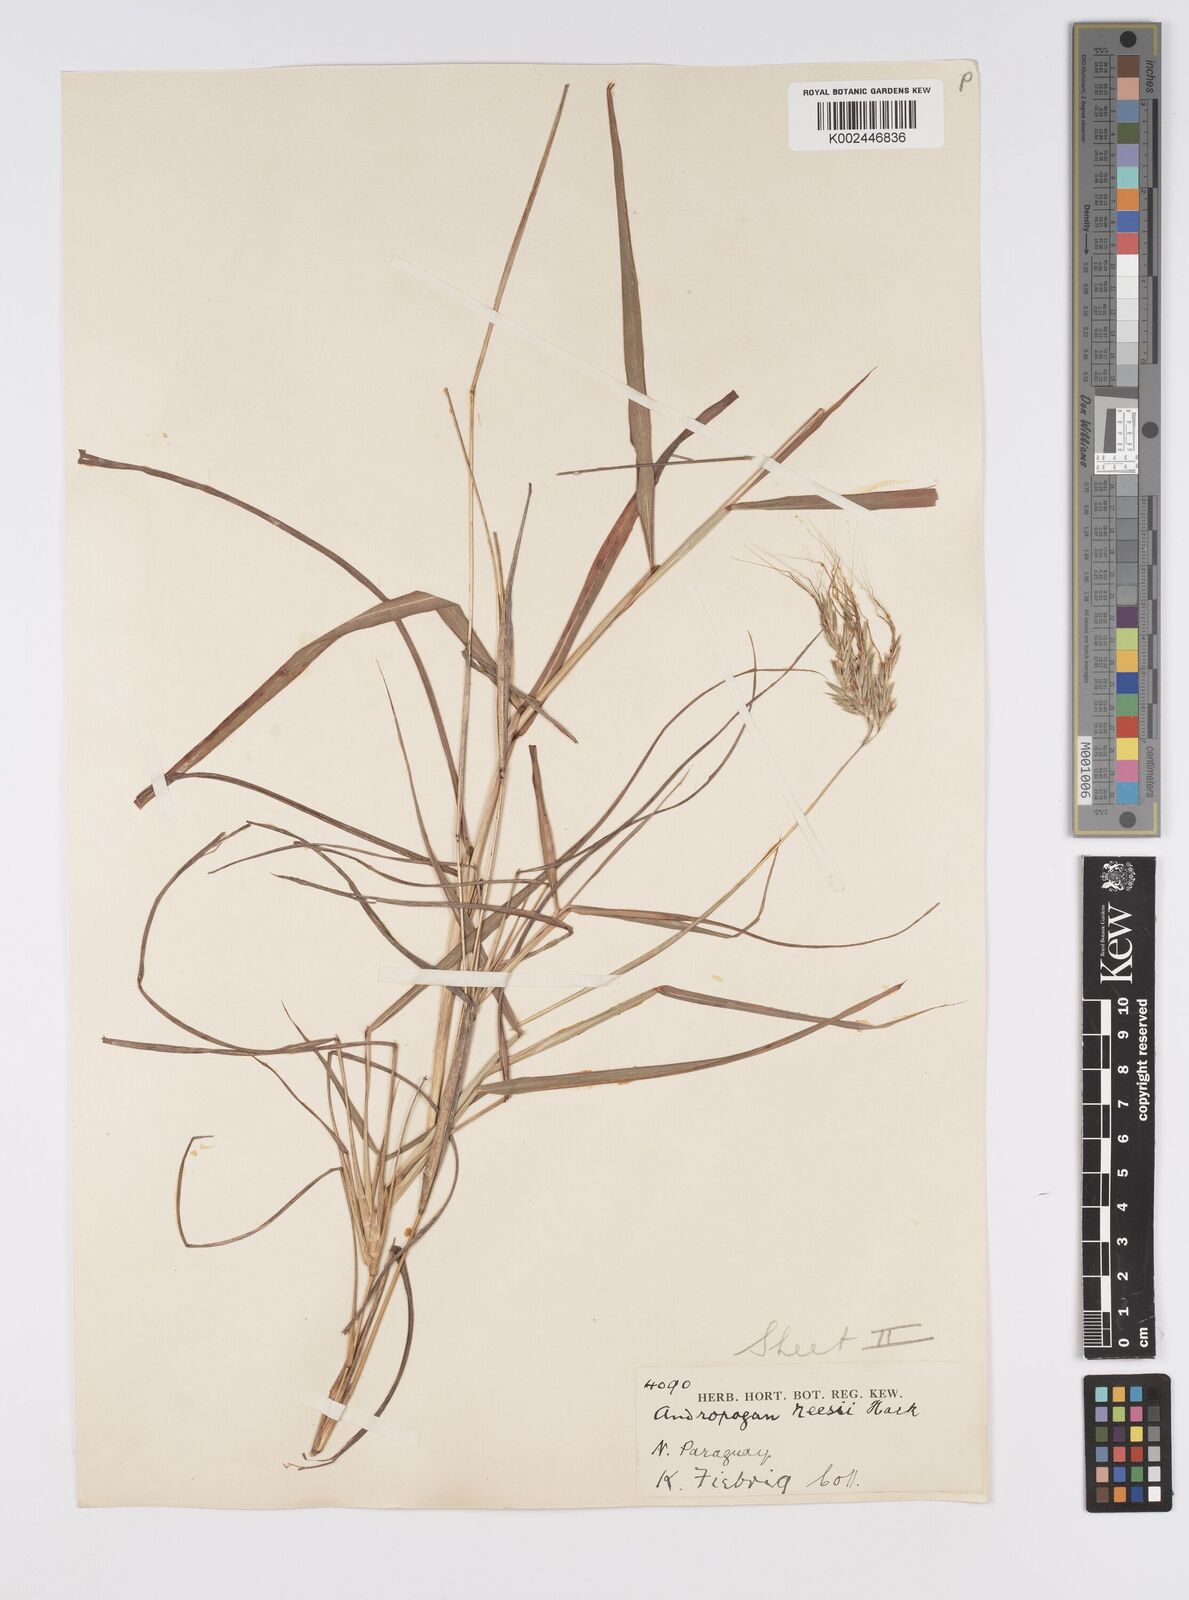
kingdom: Plantae
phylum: Tracheophyta
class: Liliopsida
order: Poales
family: Poaceae
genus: Agenium
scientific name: Agenium villosum
